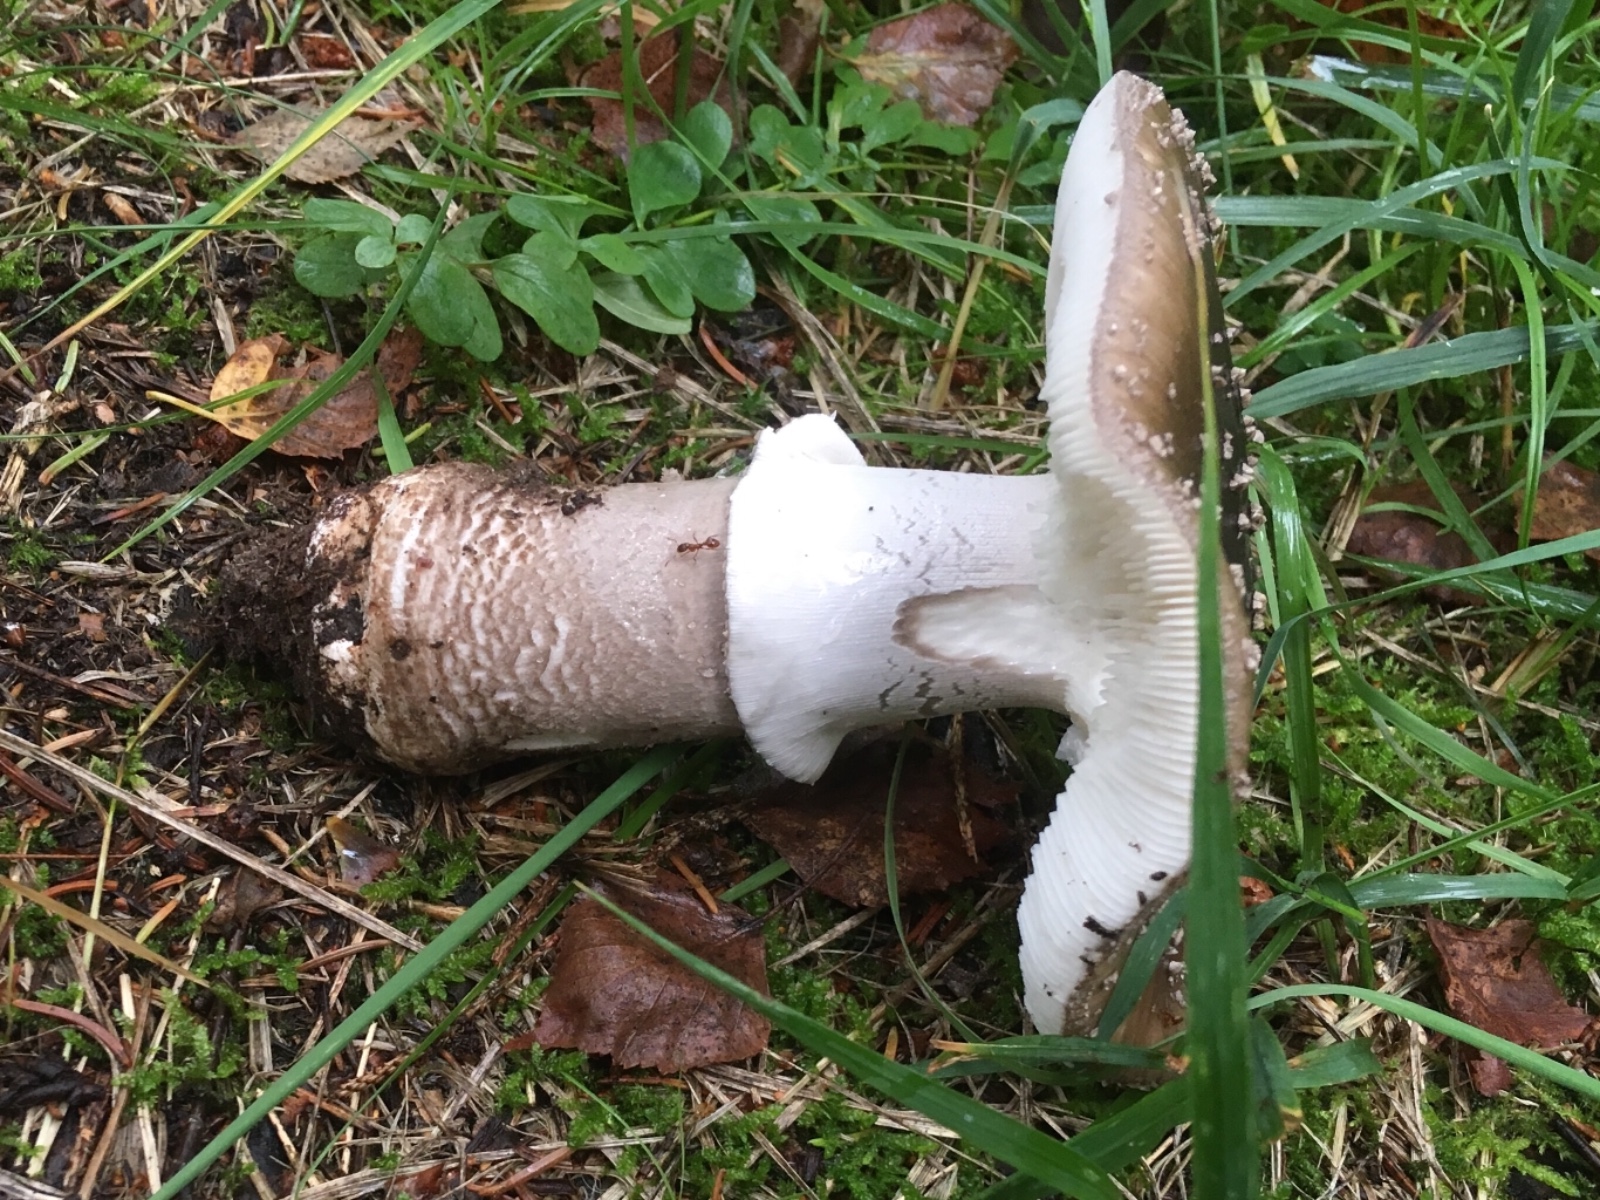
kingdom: Fungi
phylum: Basidiomycota
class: Agaricomycetes
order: Agaricales
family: Amanitaceae
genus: Amanita
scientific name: Amanita
